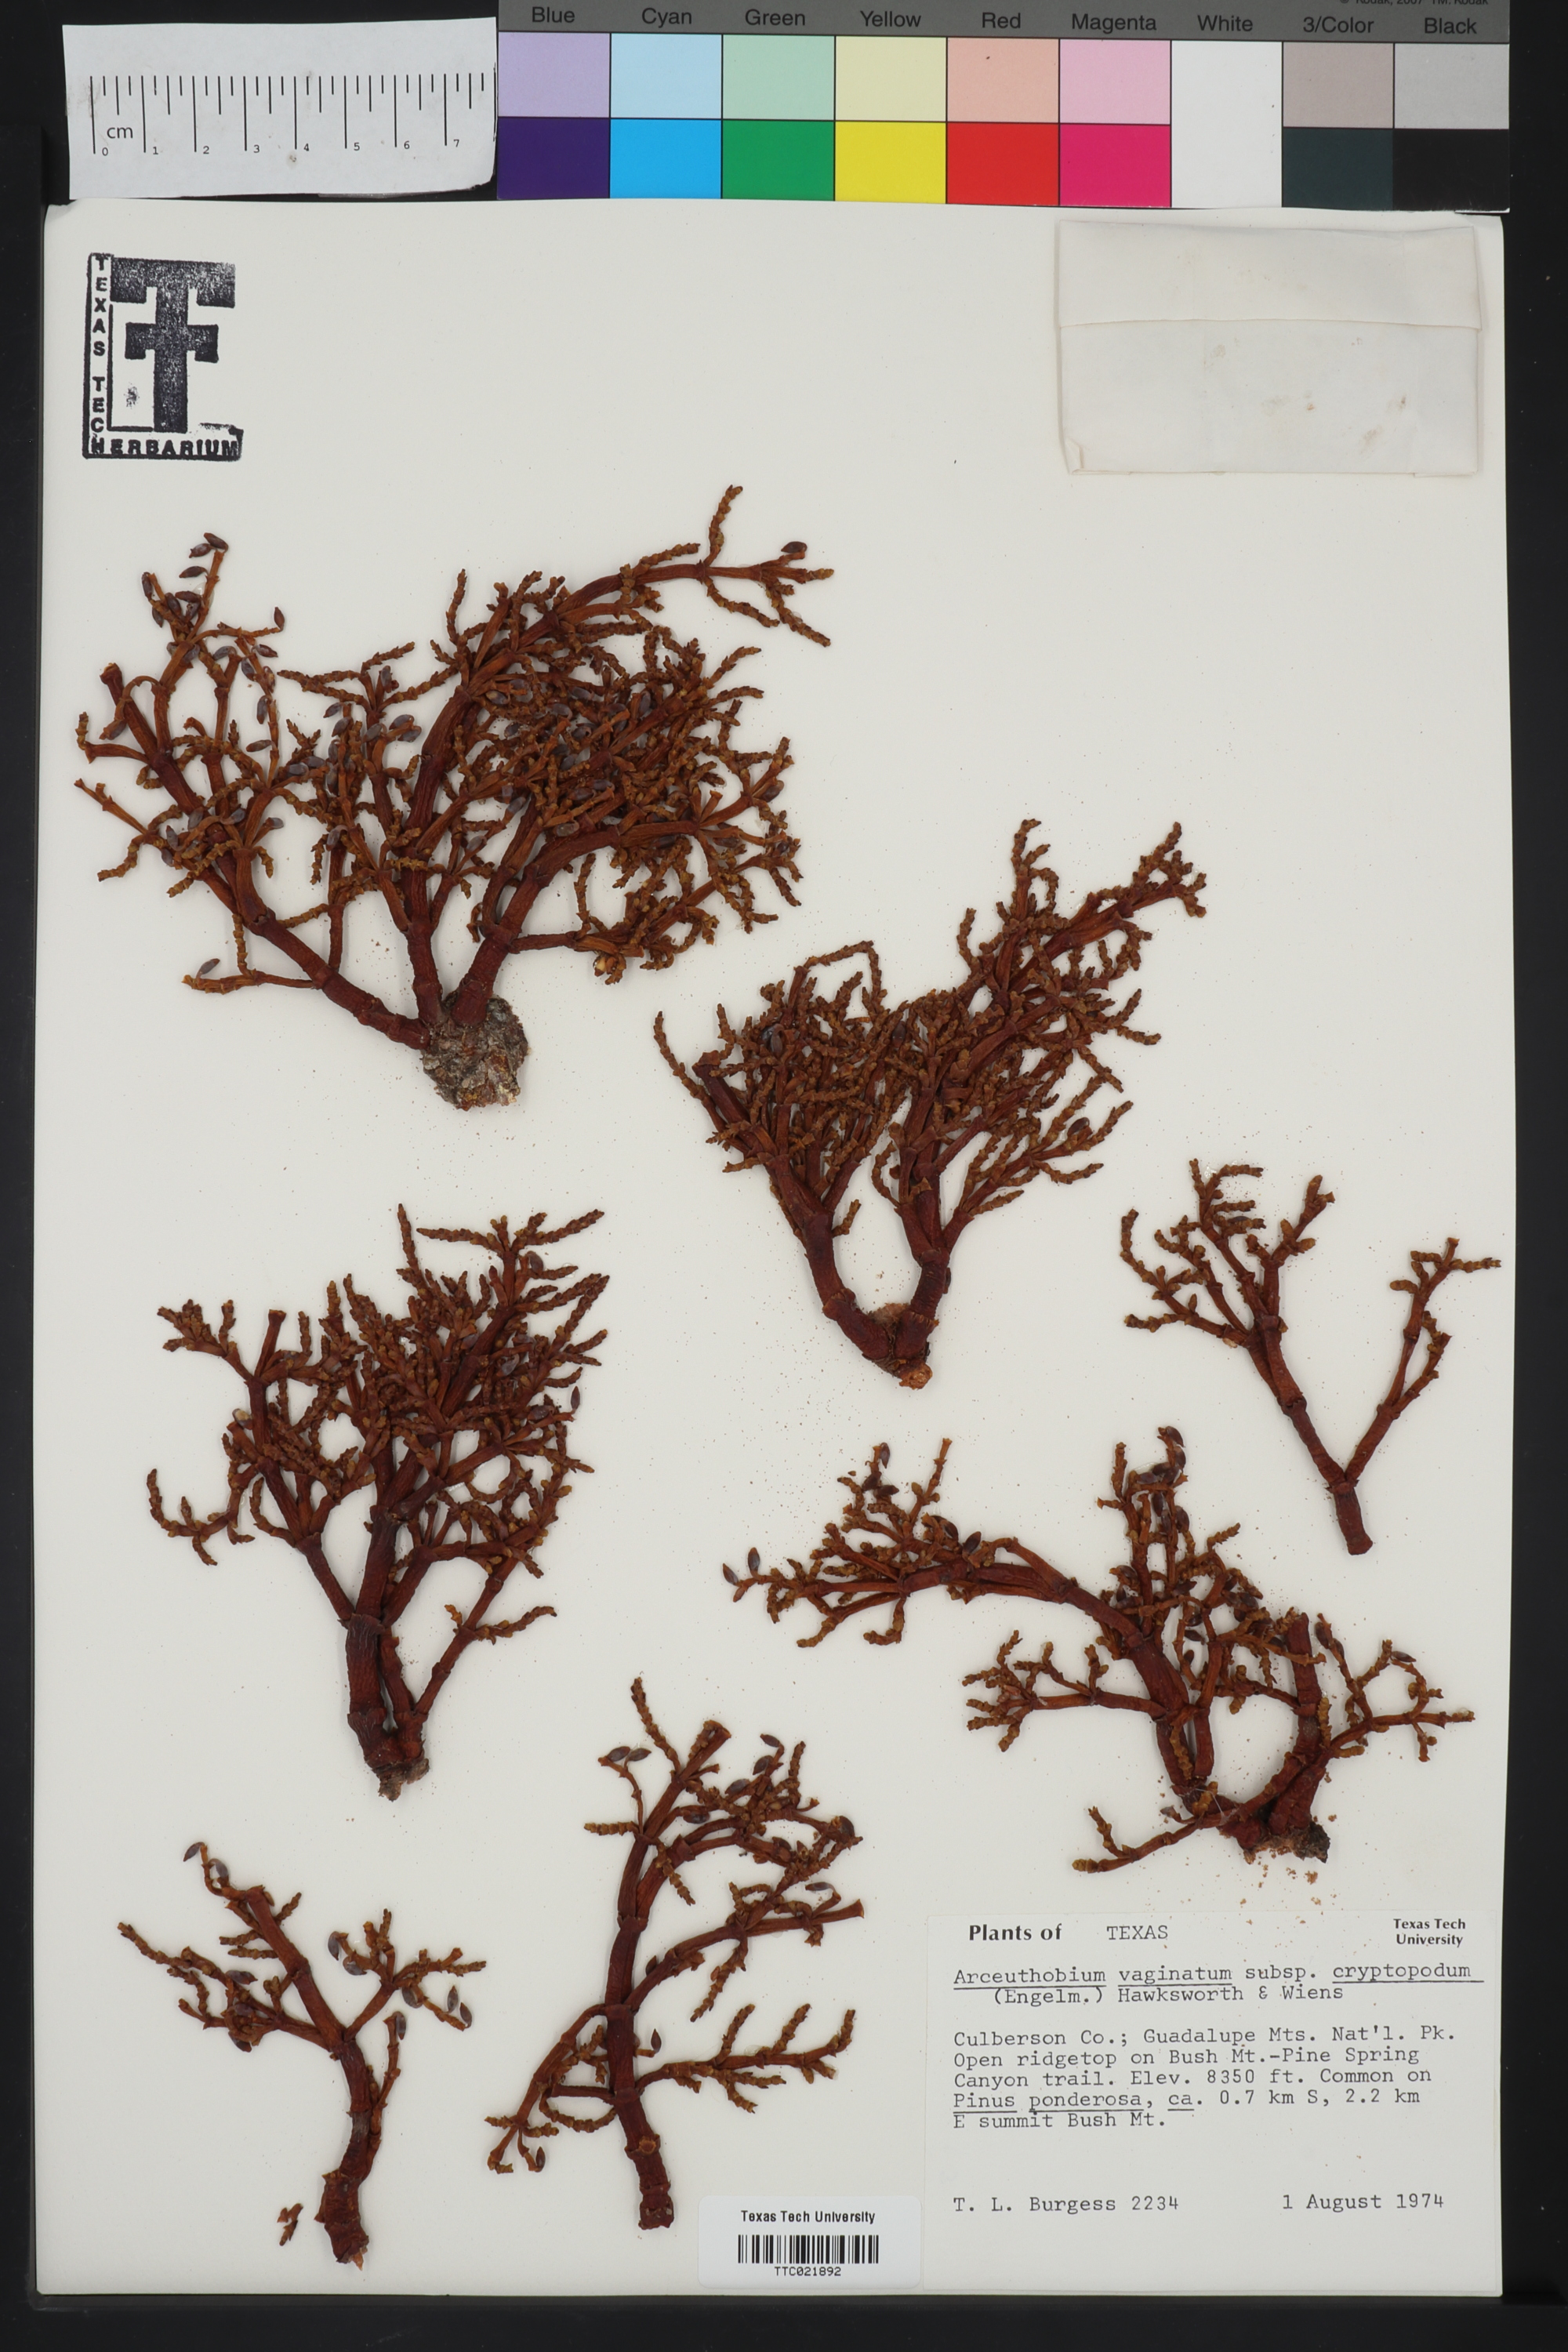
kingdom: Plantae
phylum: Tracheophyta
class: Magnoliopsida
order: Santalales
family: Viscaceae
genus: Arceuthobium
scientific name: Arceuthobium vaginatum
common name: Southwestern dwarf-mistletoe
